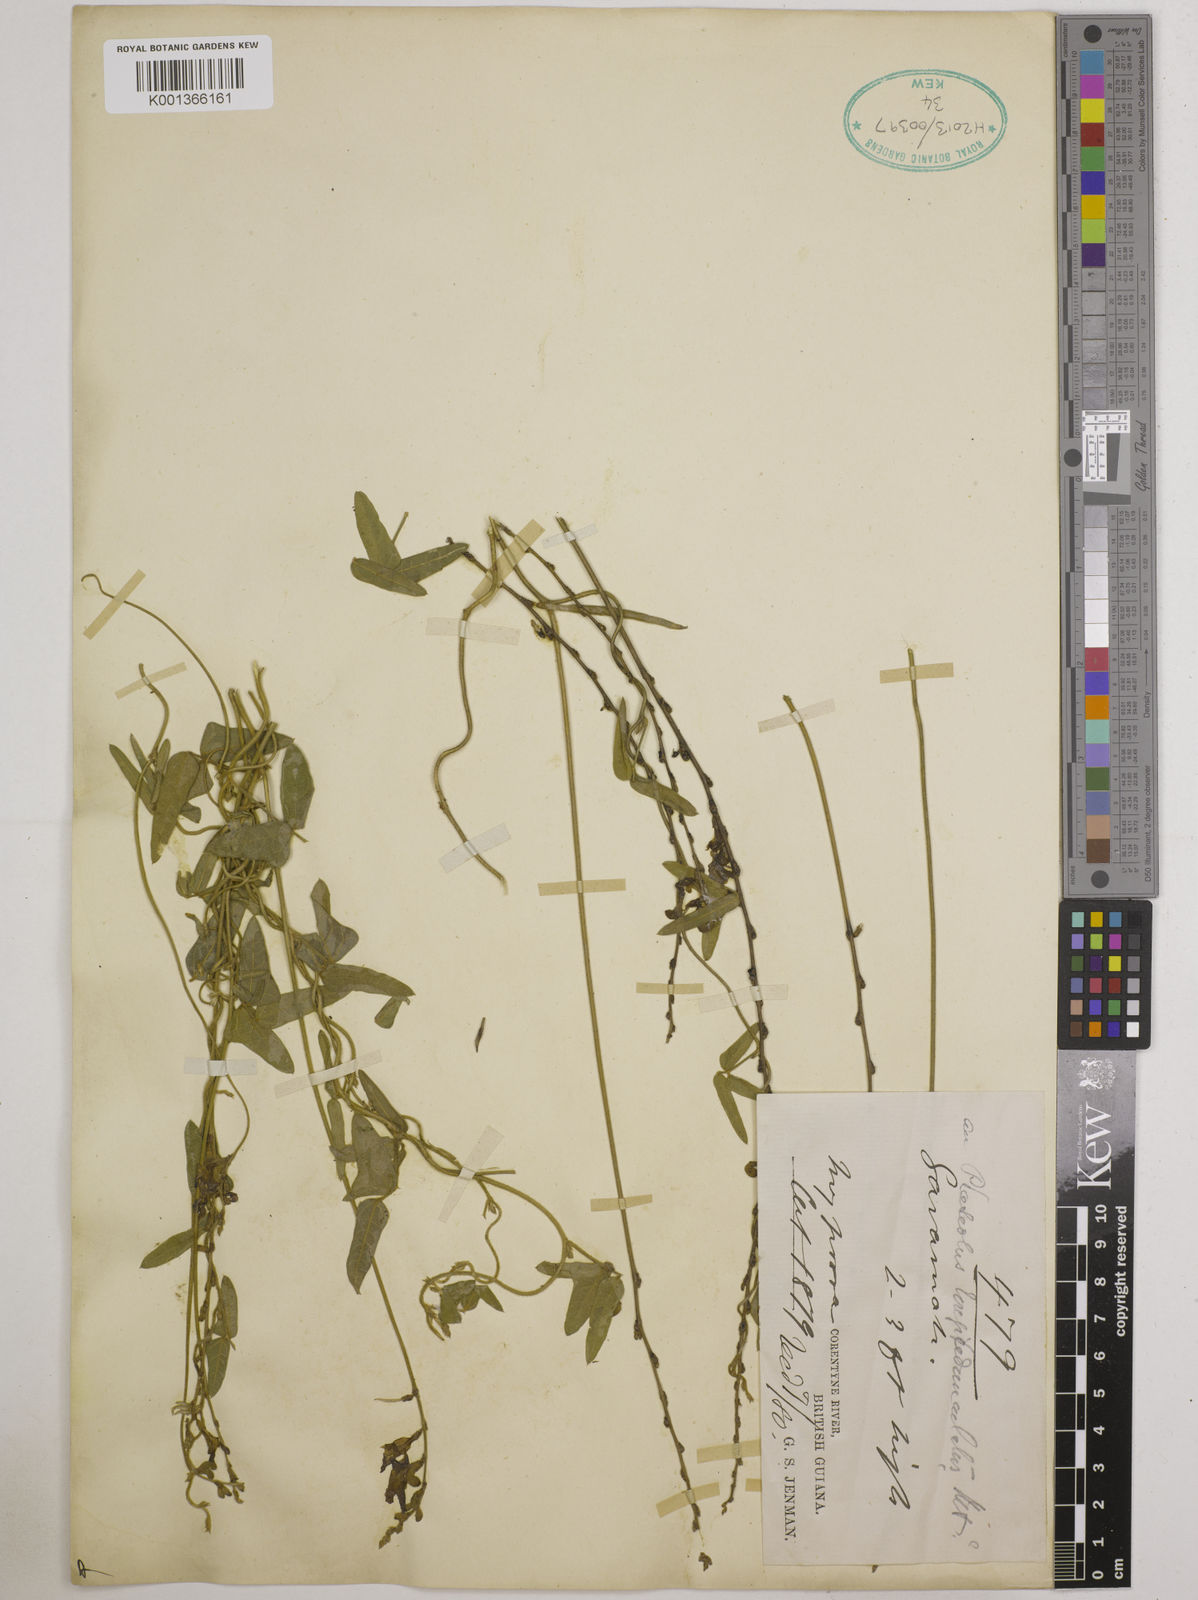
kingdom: Plantae
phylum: Tracheophyta
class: Magnoliopsida
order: Fabales
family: Fabaceae
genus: Macroptilium
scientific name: Macroptilium longepedunculatum
